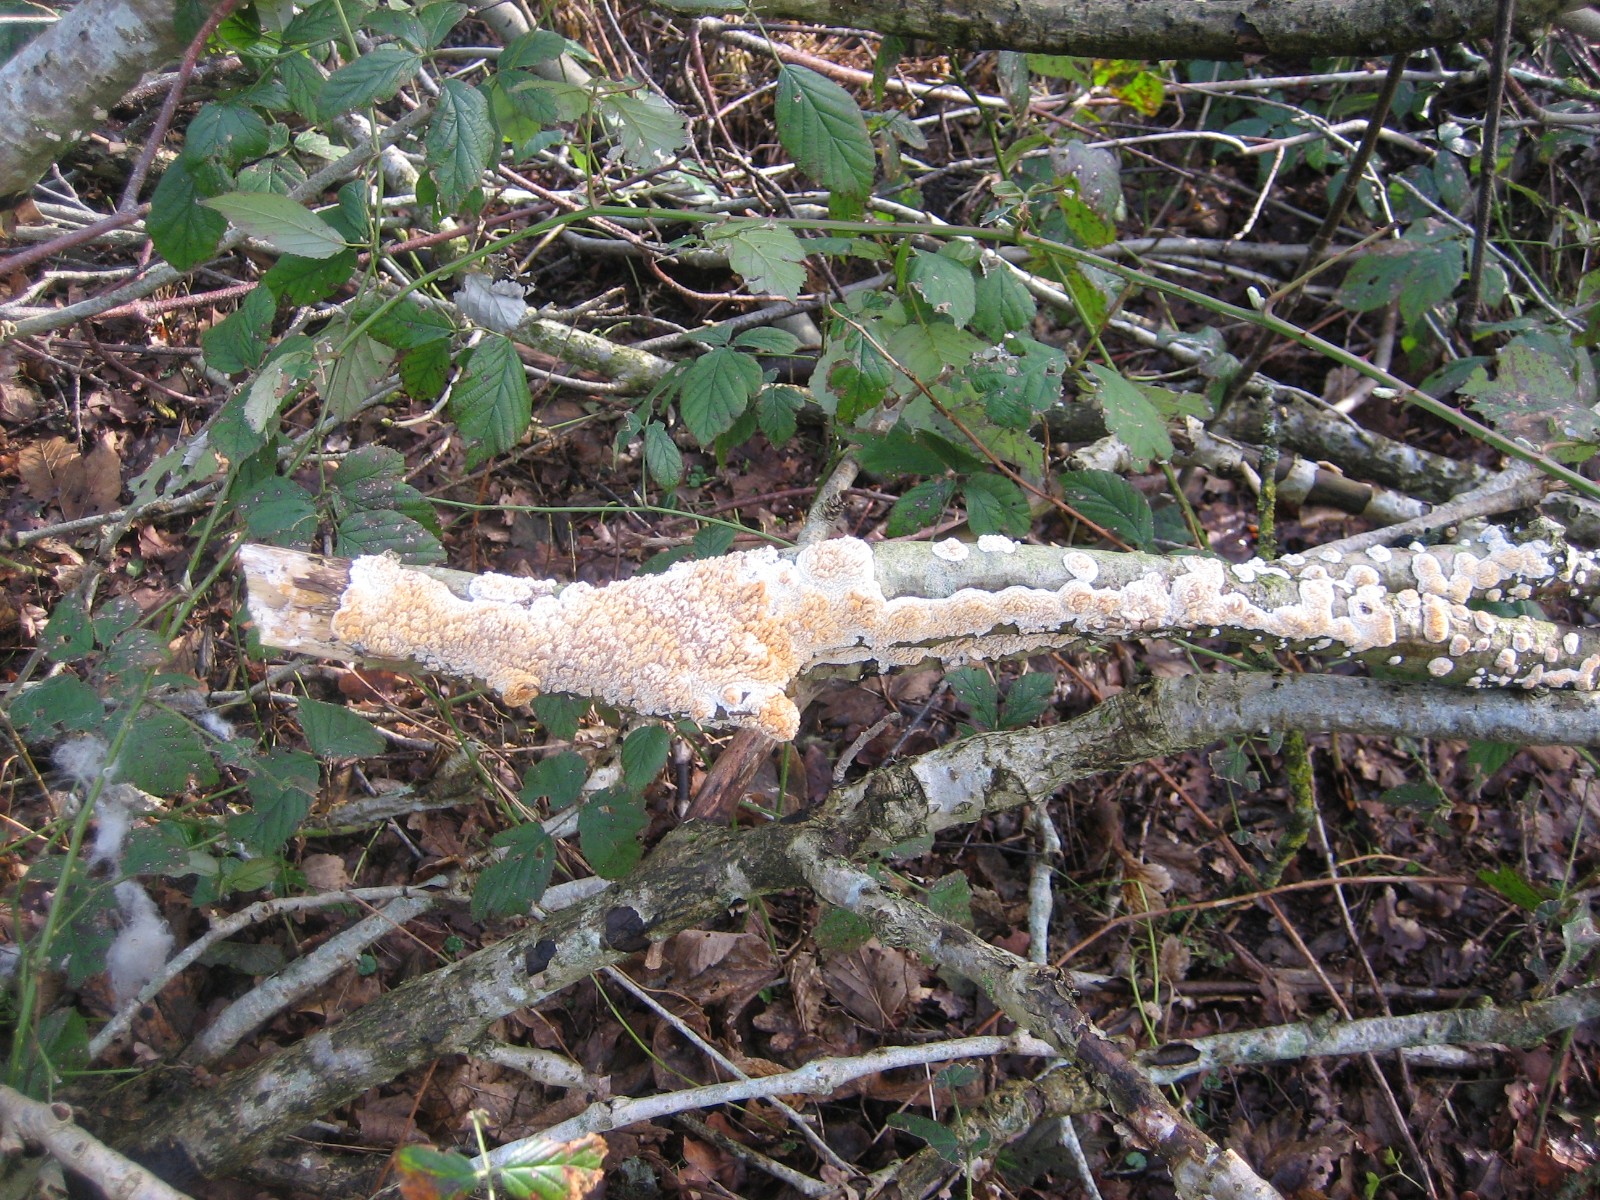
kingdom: Fungi
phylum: Basidiomycota
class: Agaricomycetes
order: Hymenochaetales
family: Schizoporaceae
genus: Xylodon
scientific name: Xylodon radula
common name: grovtandet kalkskind
